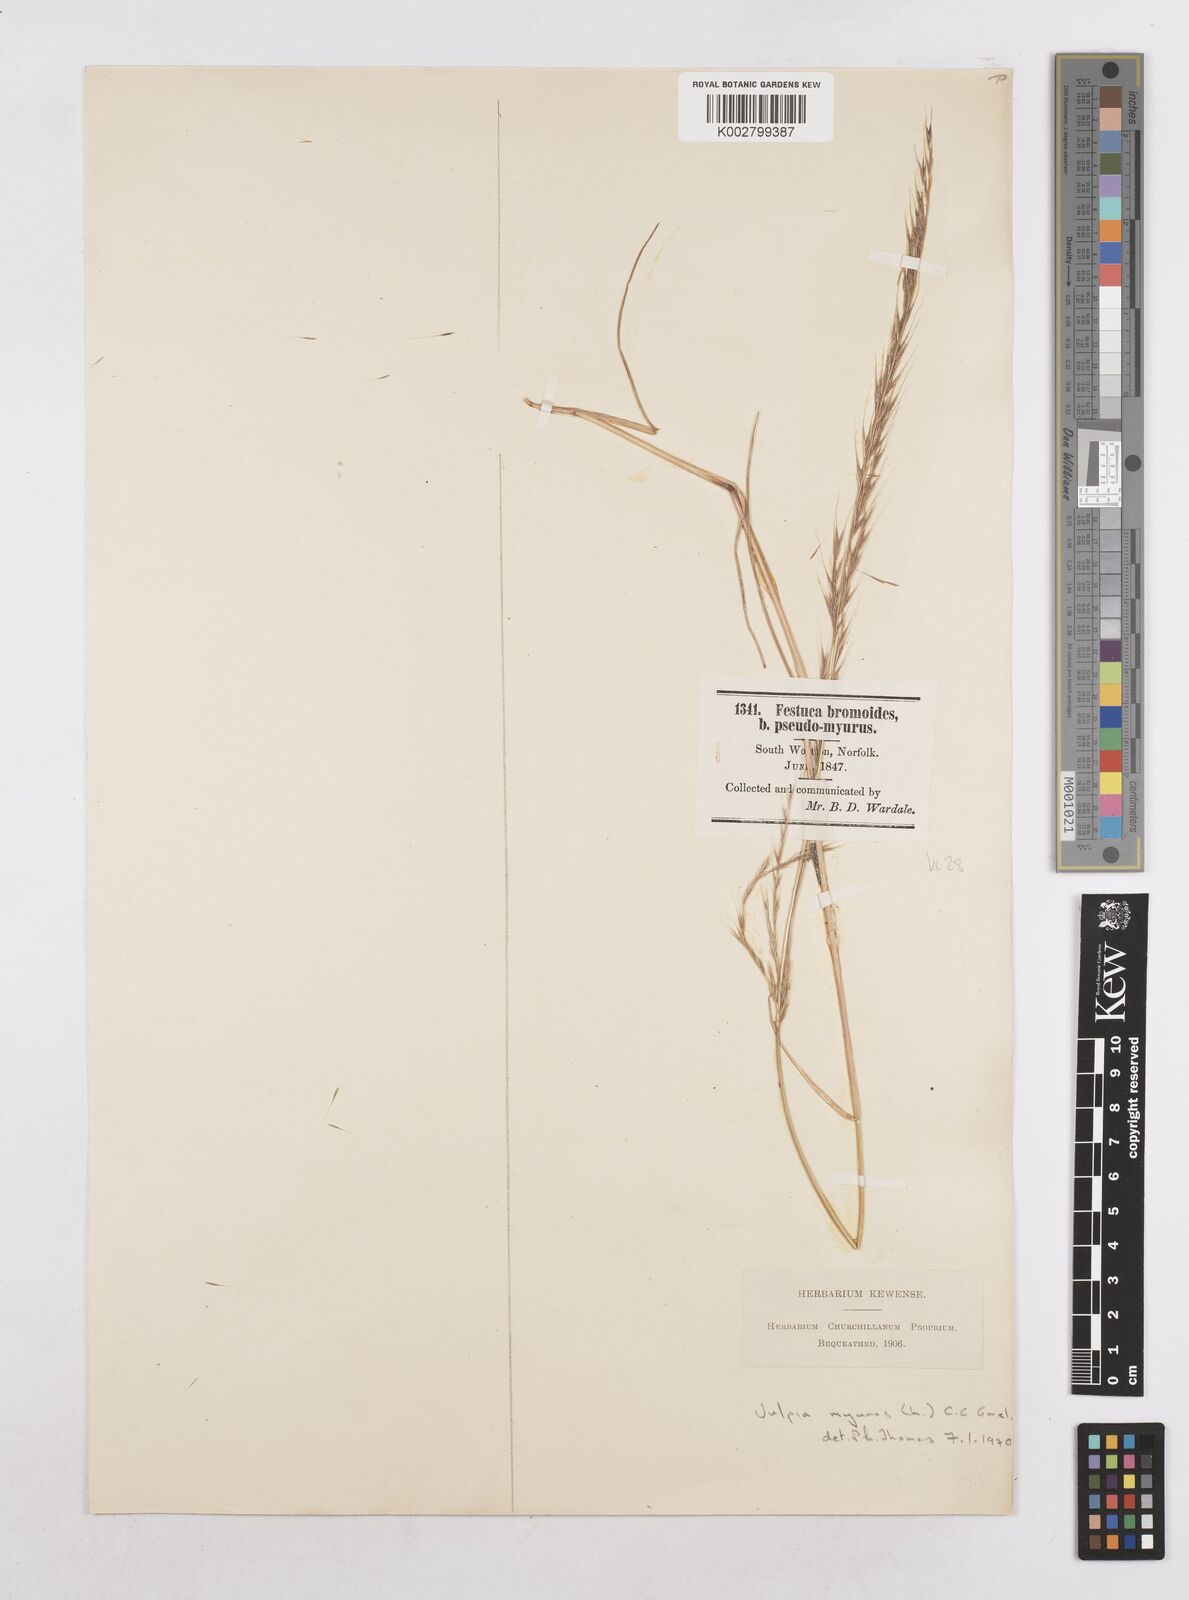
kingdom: Plantae
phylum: Tracheophyta
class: Liliopsida
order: Poales
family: Poaceae
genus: Festuca
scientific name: Festuca myuros
